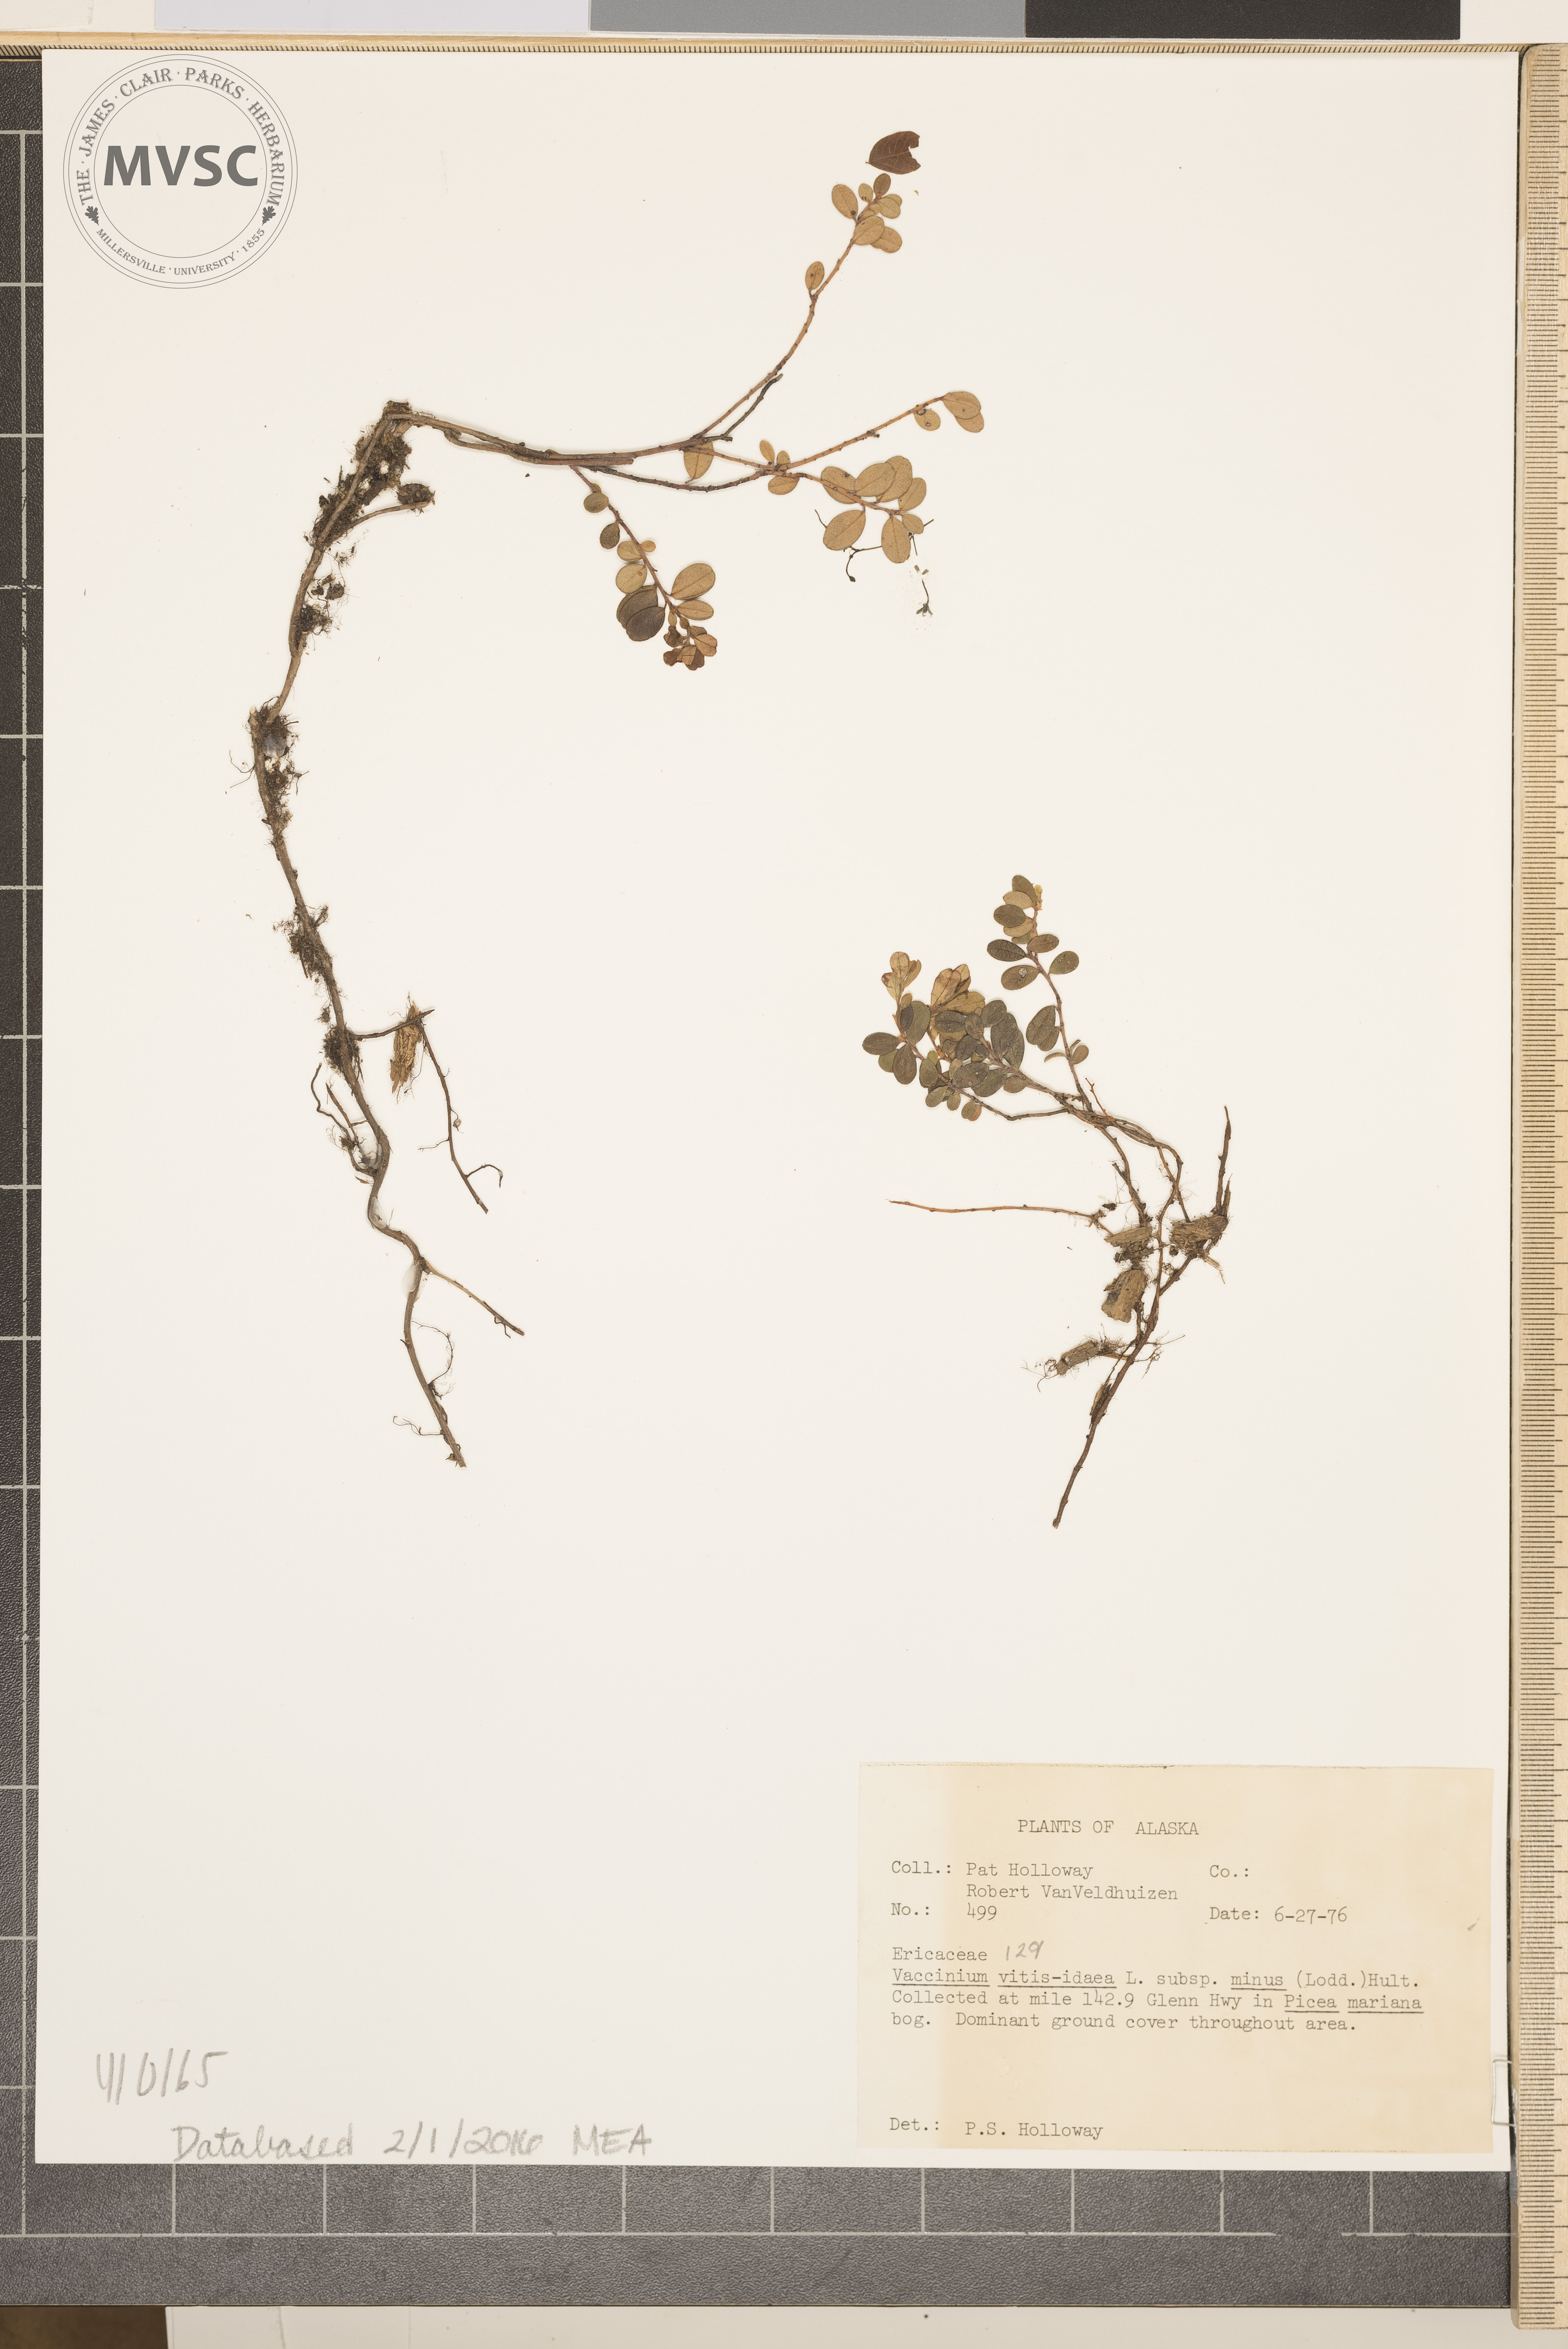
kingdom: Plantae
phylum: Tracheophyta
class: Magnoliopsida
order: Ericales
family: Ericaceae
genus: Vaccinium
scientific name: Vaccinium vitis-idaea
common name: Cowberry
